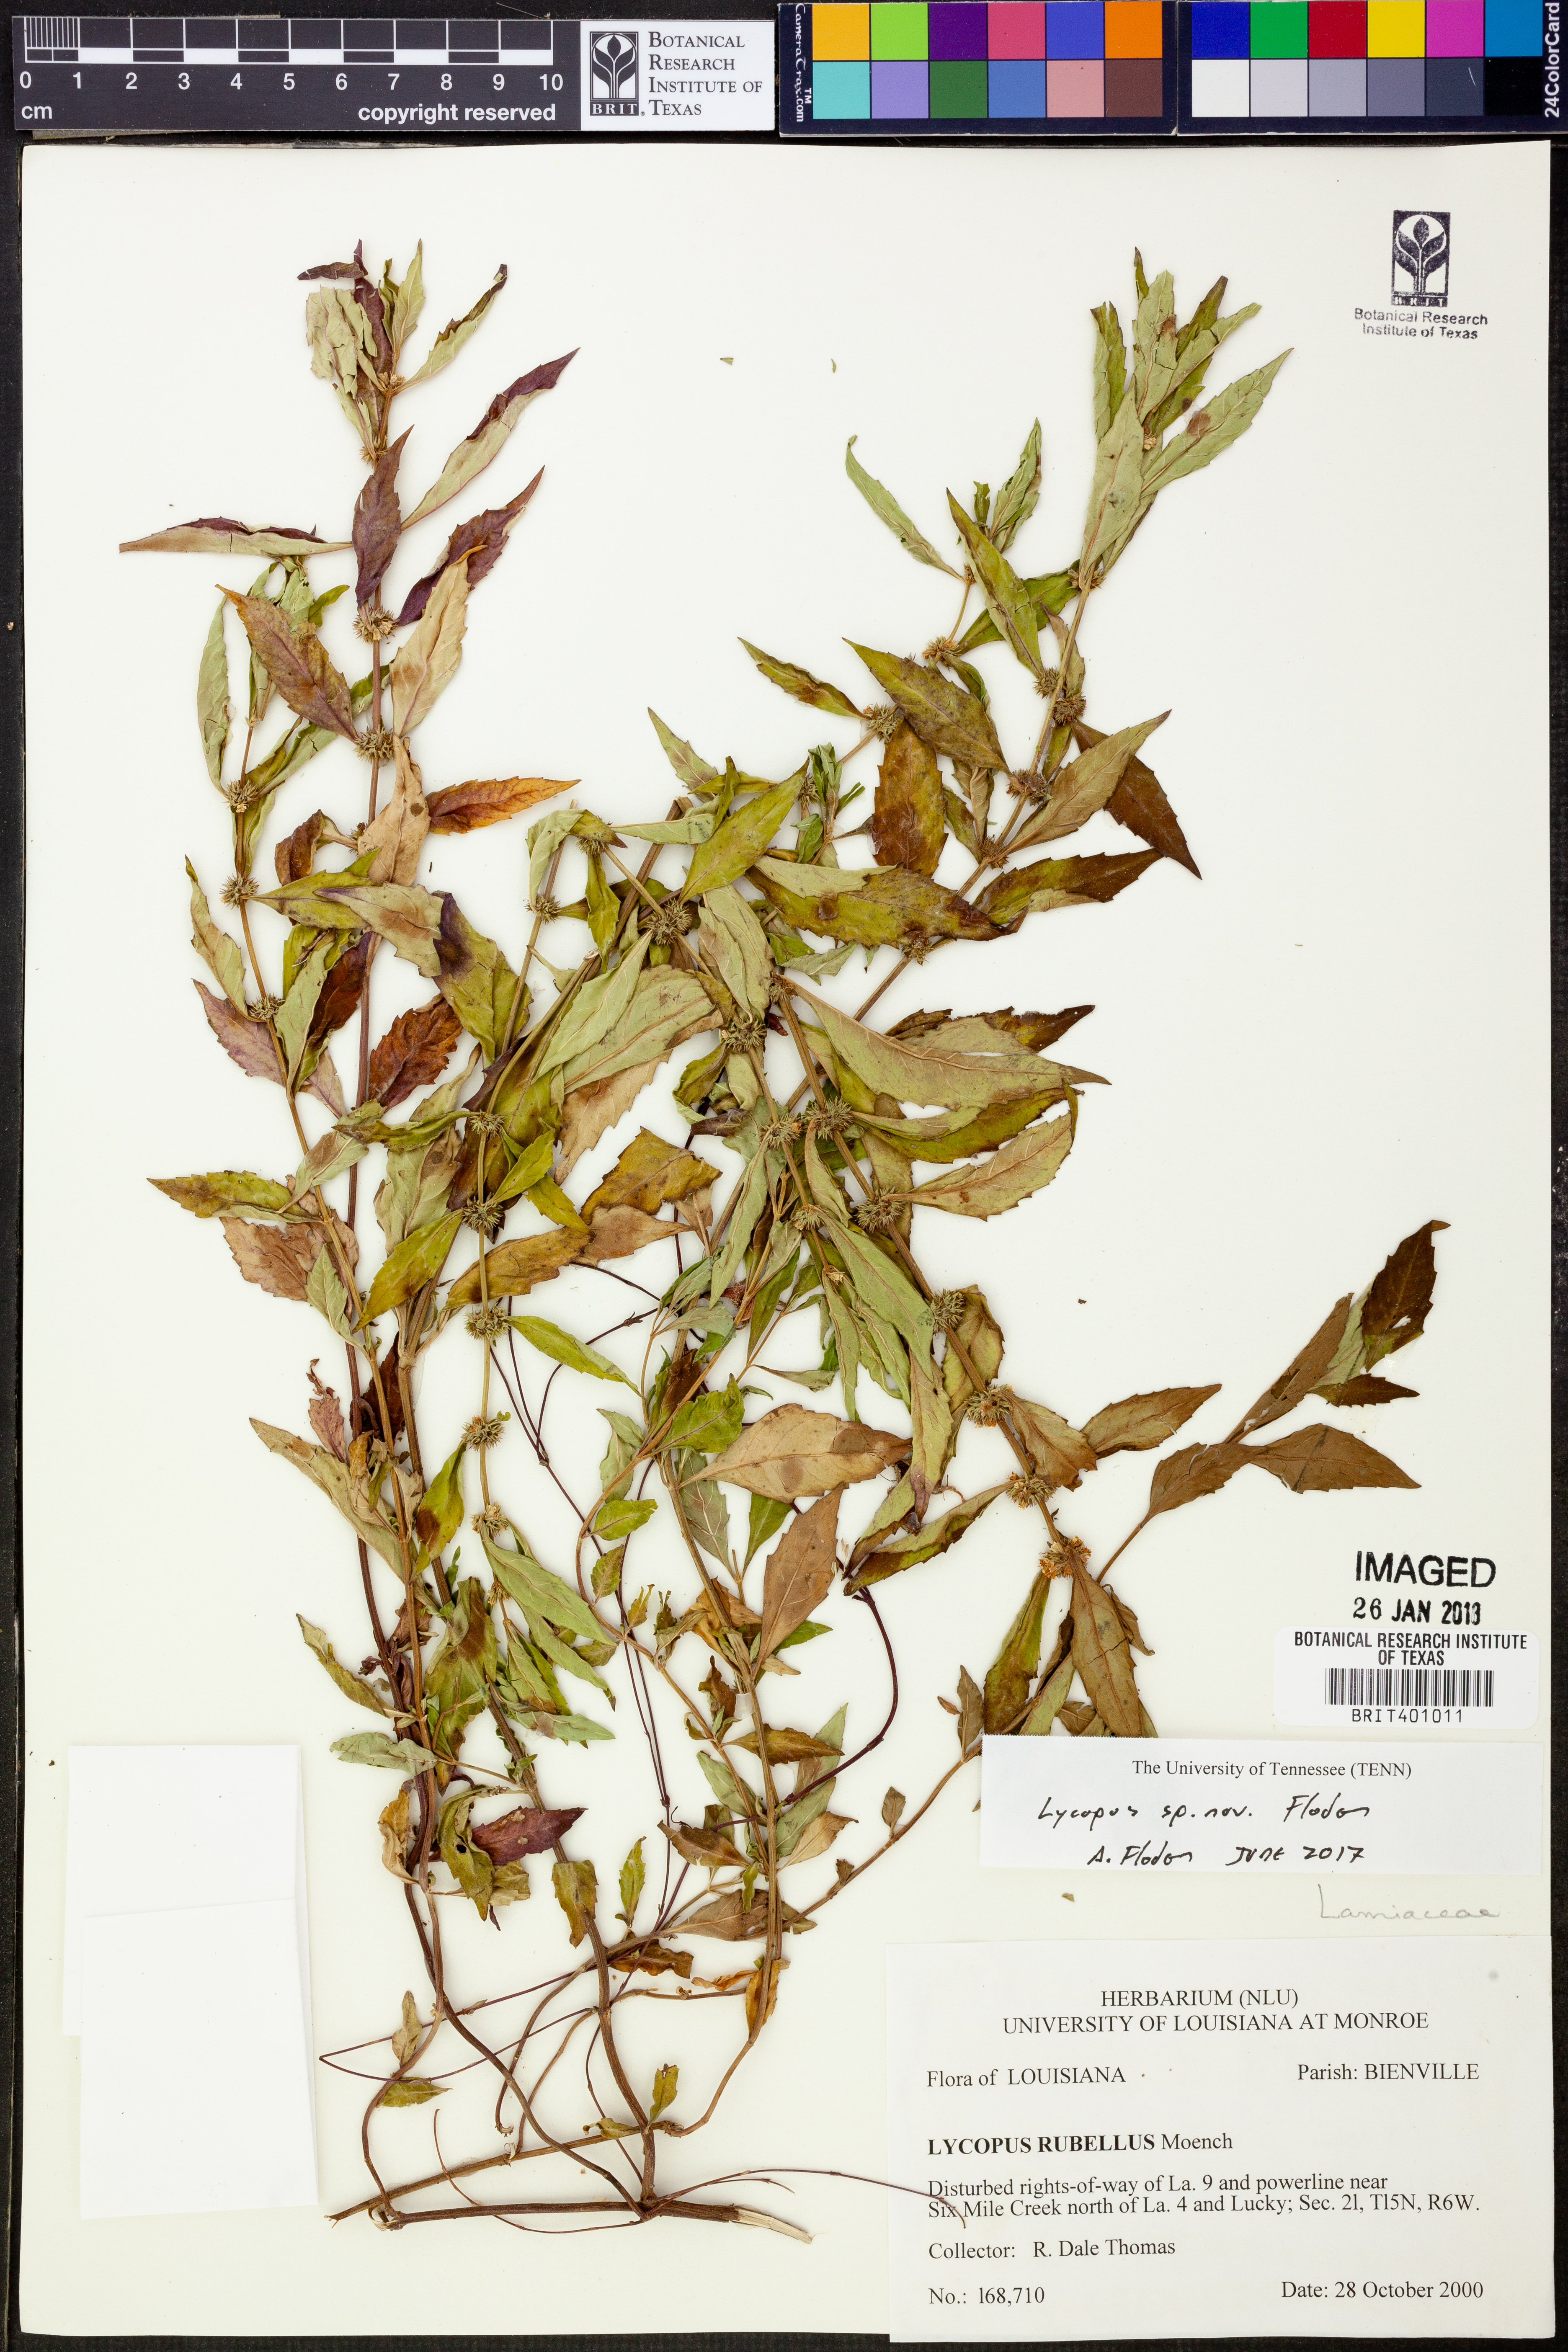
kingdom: Plantae
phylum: Tracheophyta
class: Magnoliopsida
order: Lamiales
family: Lamiaceae
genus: Lycopus
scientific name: Lycopus
